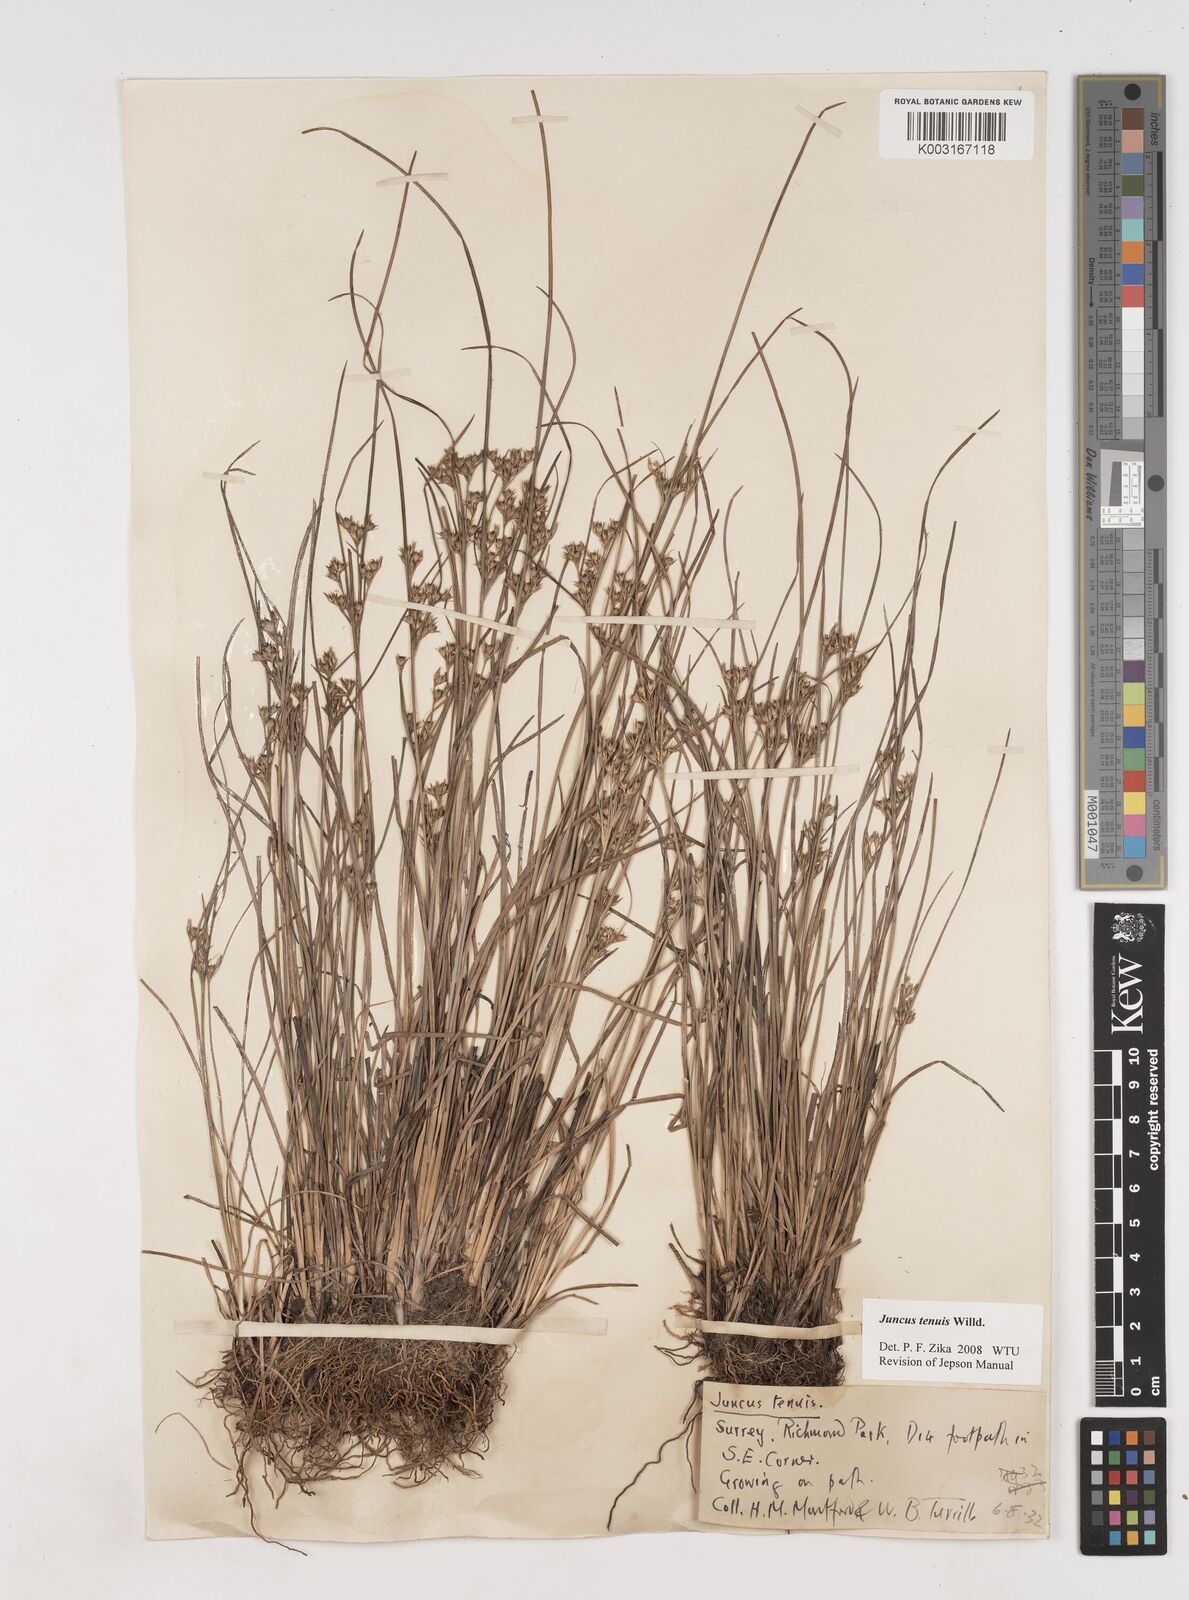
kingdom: Plantae
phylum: Tracheophyta
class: Liliopsida
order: Poales
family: Juncaceae
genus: Juncus
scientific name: Juncus tenuis
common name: Slender rush
